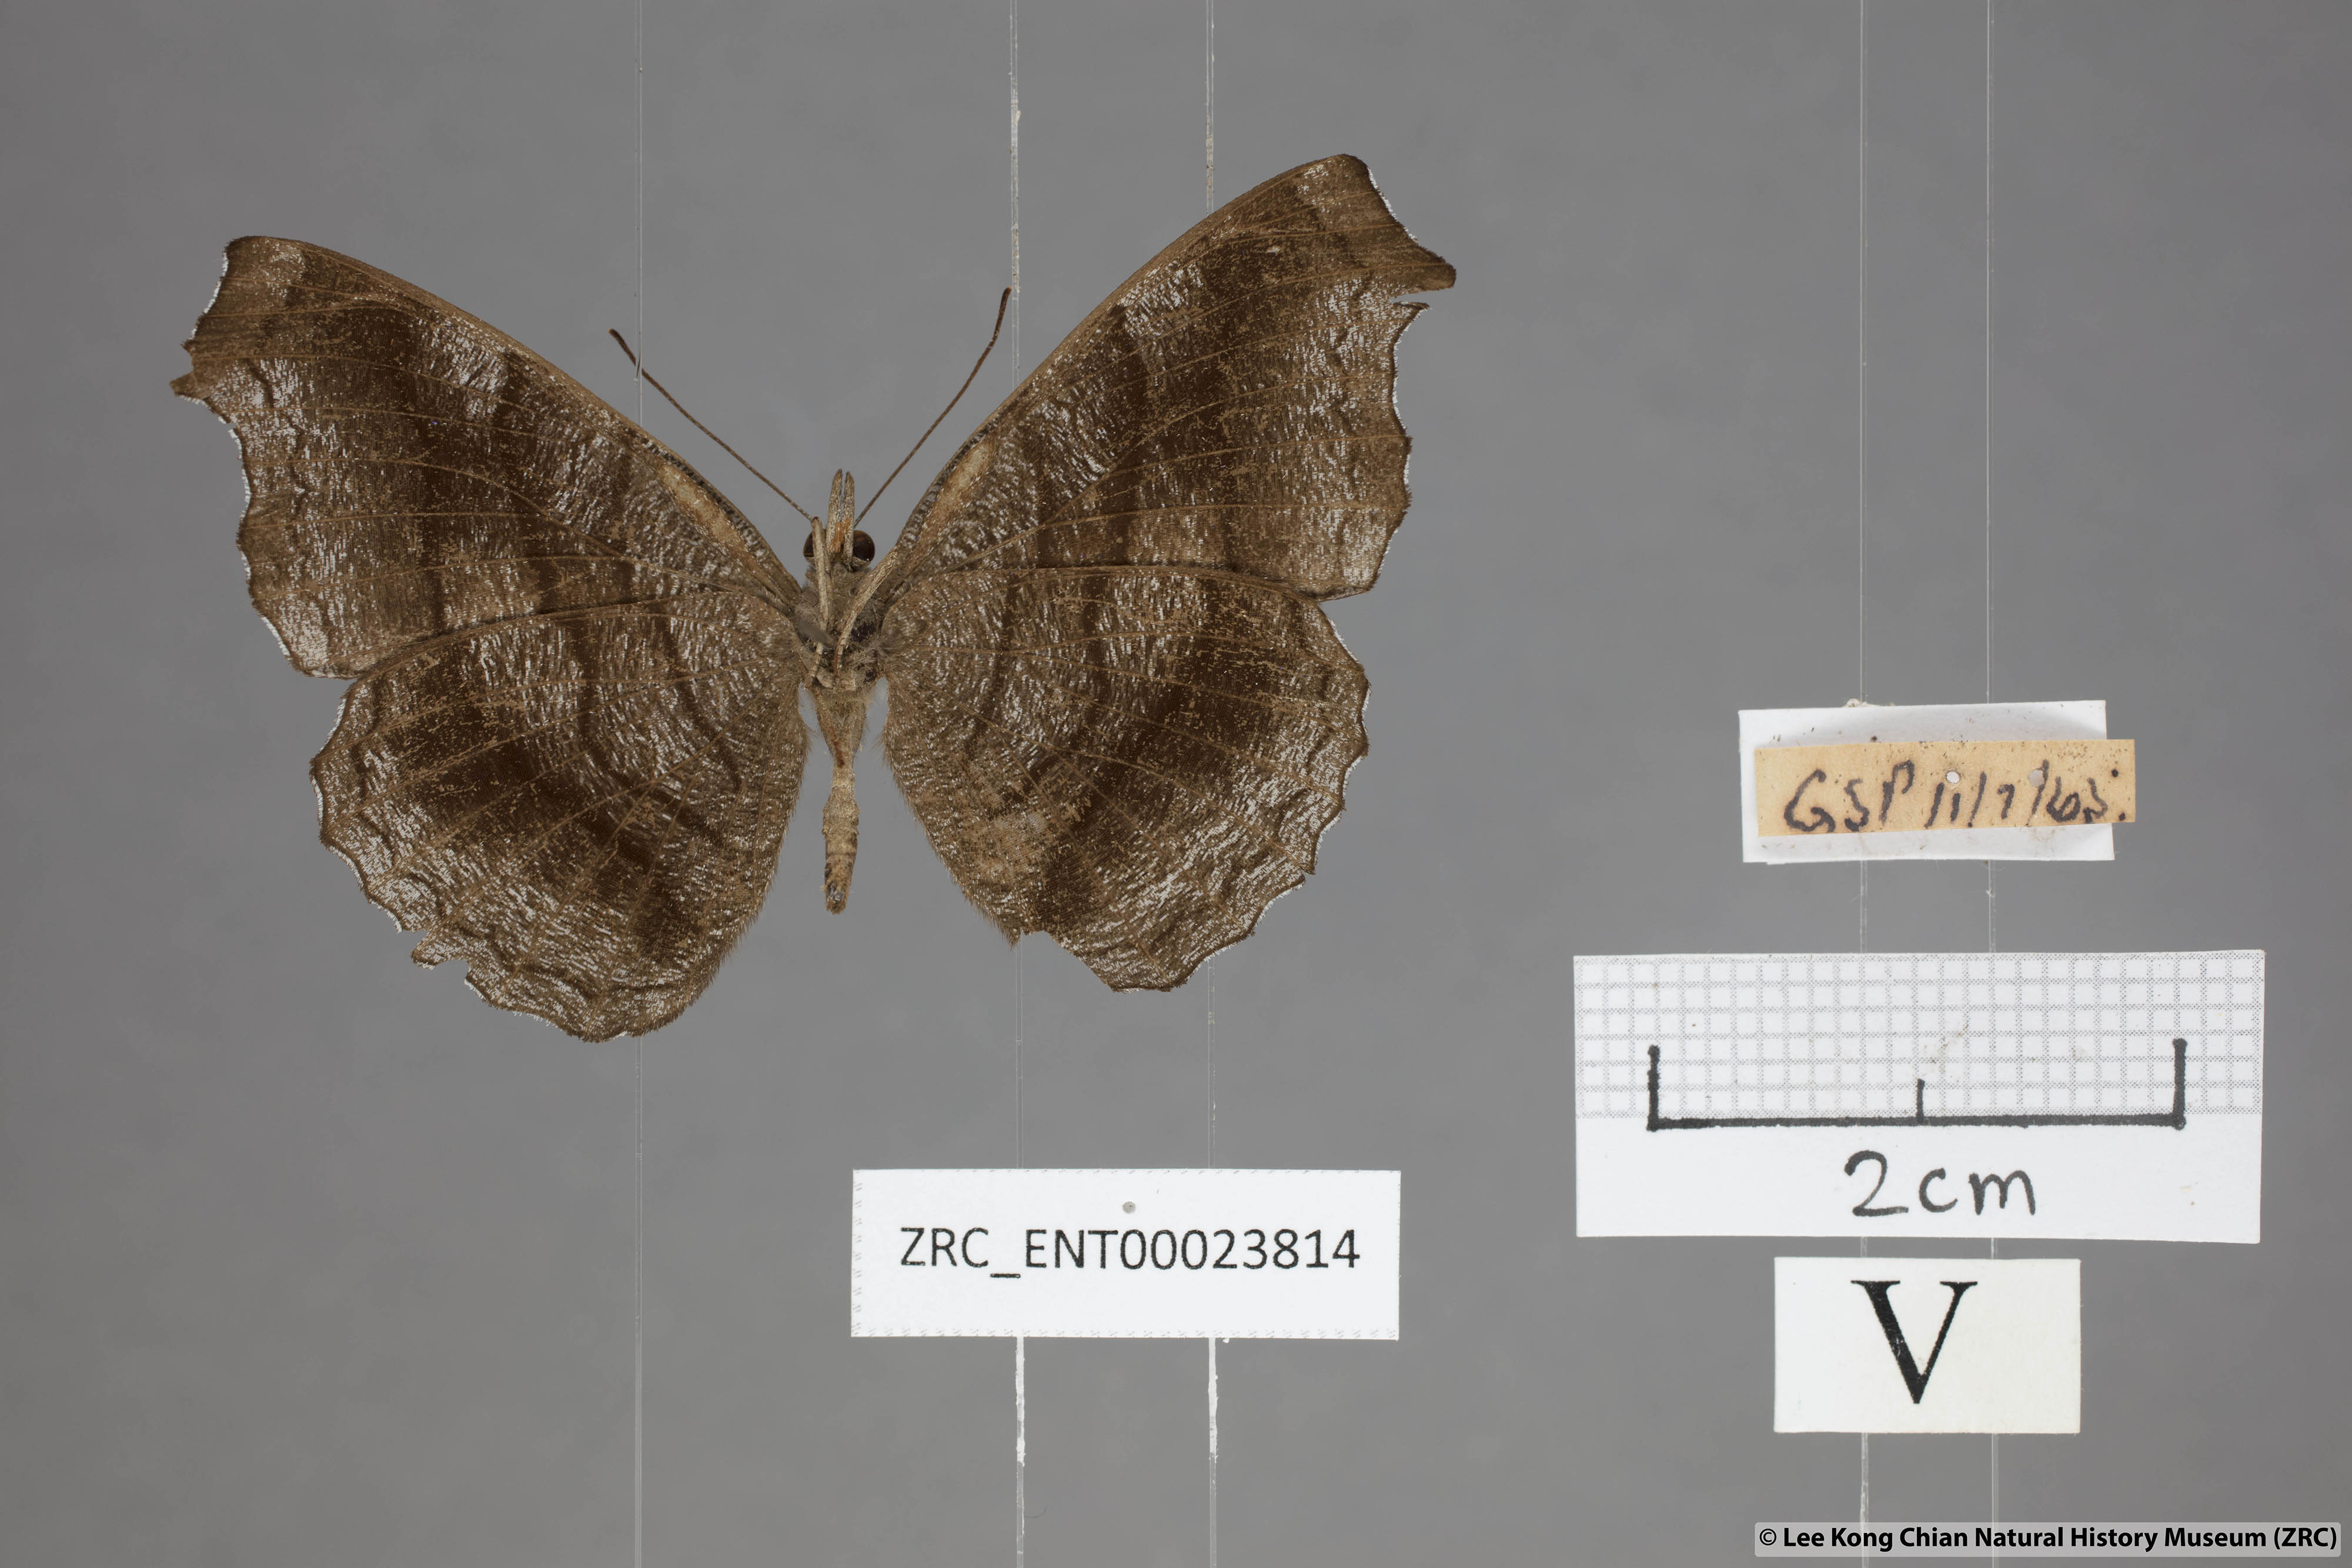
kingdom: Animalia
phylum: Arthropoda
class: Insecta
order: Lepidoptera
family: Nymphalidae
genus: Laringa
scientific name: Laringa castelnaui
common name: Blue dandy
